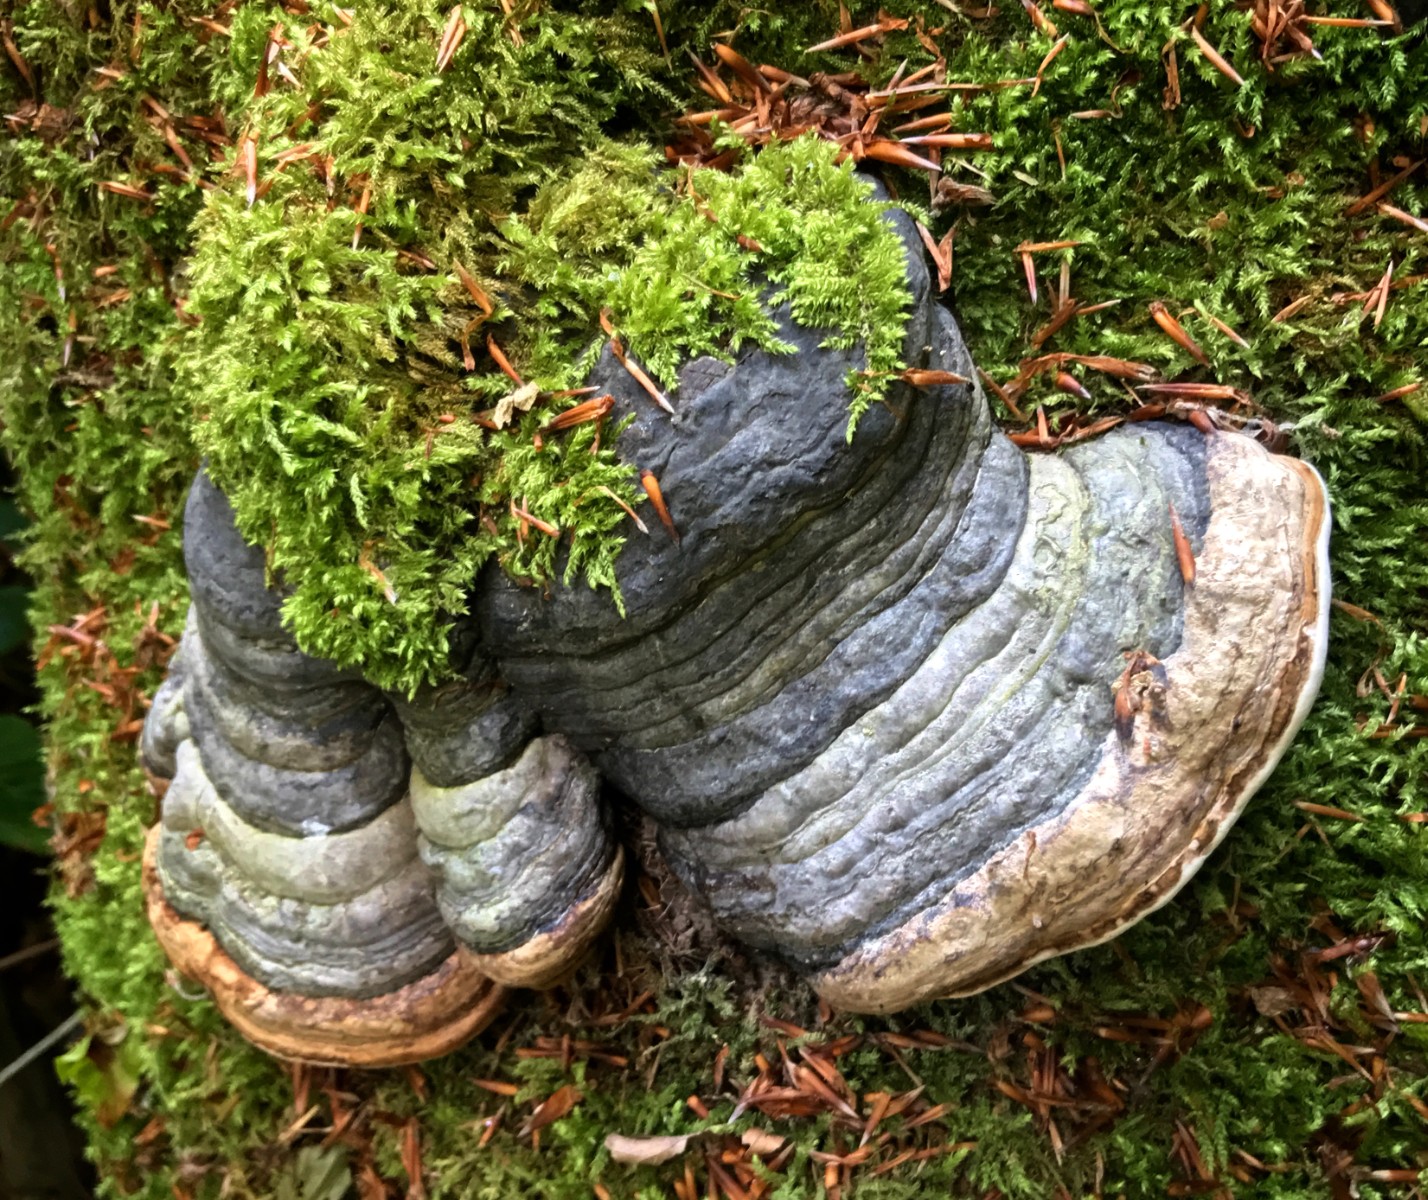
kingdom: Fungi
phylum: Basidiomycota
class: Agaricomycetes
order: Polyporales
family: Polyporaceae
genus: Fomes
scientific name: Fomes fomentarius
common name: tøndersvamp
